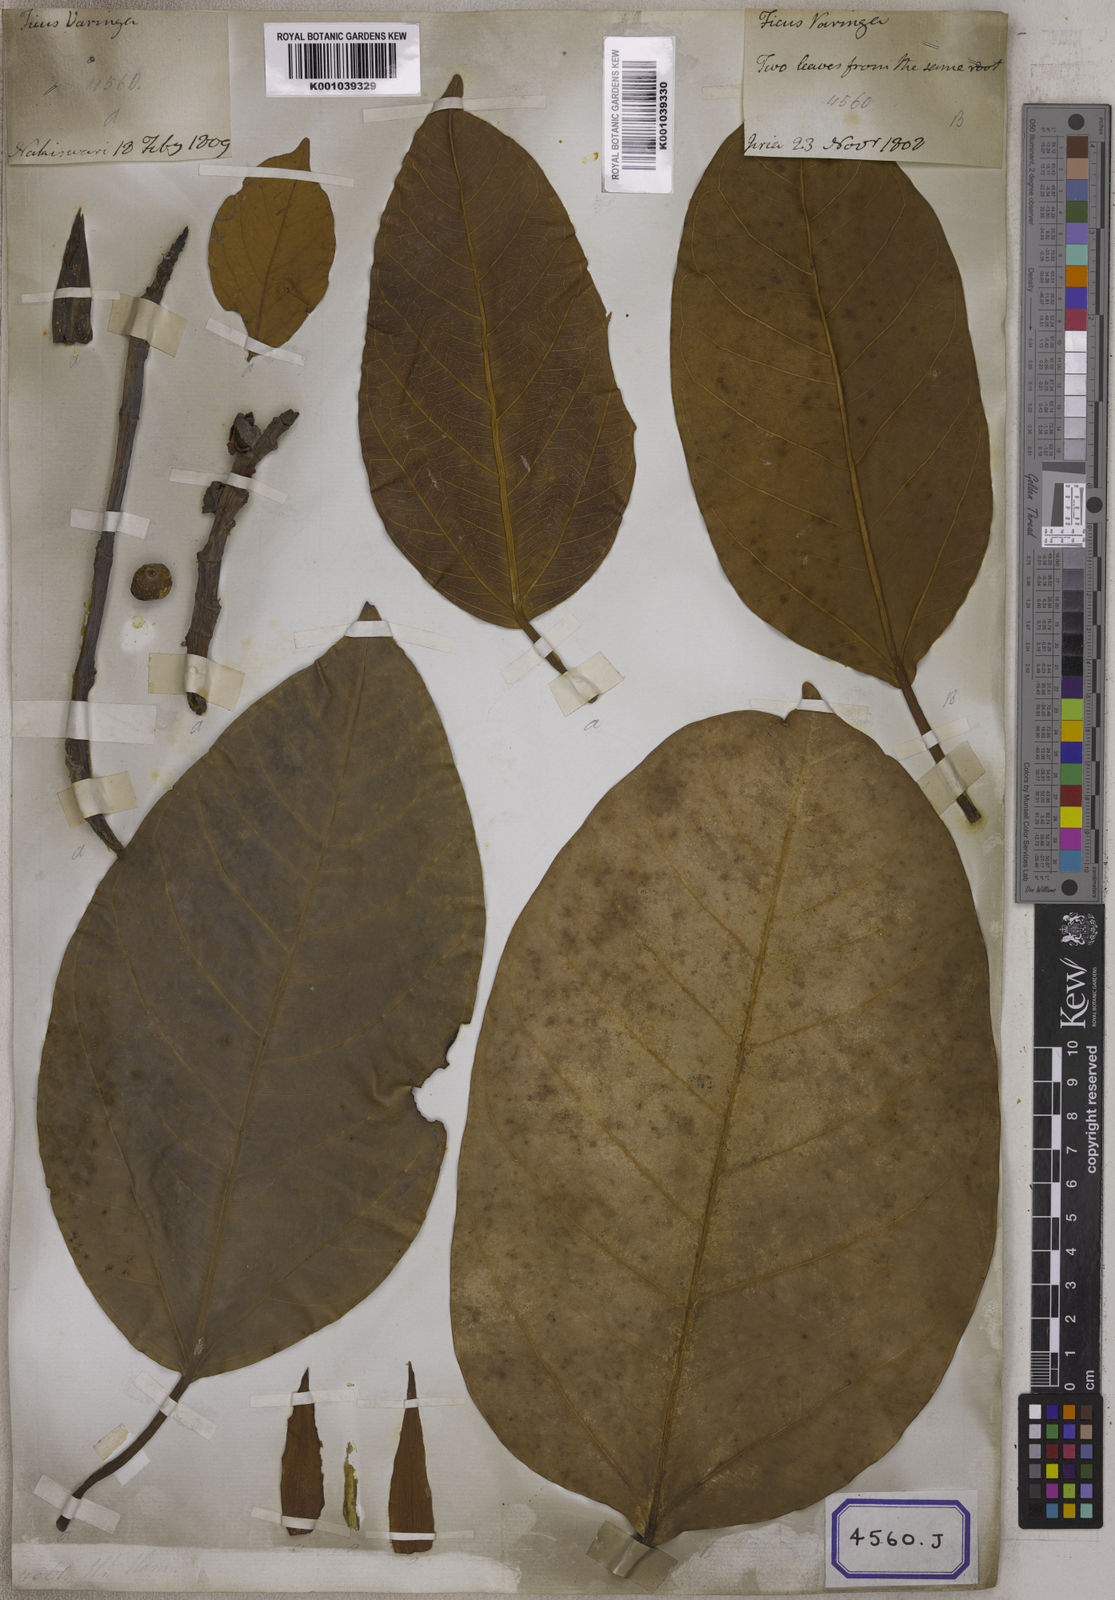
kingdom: Plantae
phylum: Tracheophyta
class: Magnoliopsida
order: Rosales
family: Moraceae
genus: Ficus
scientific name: Ficus
